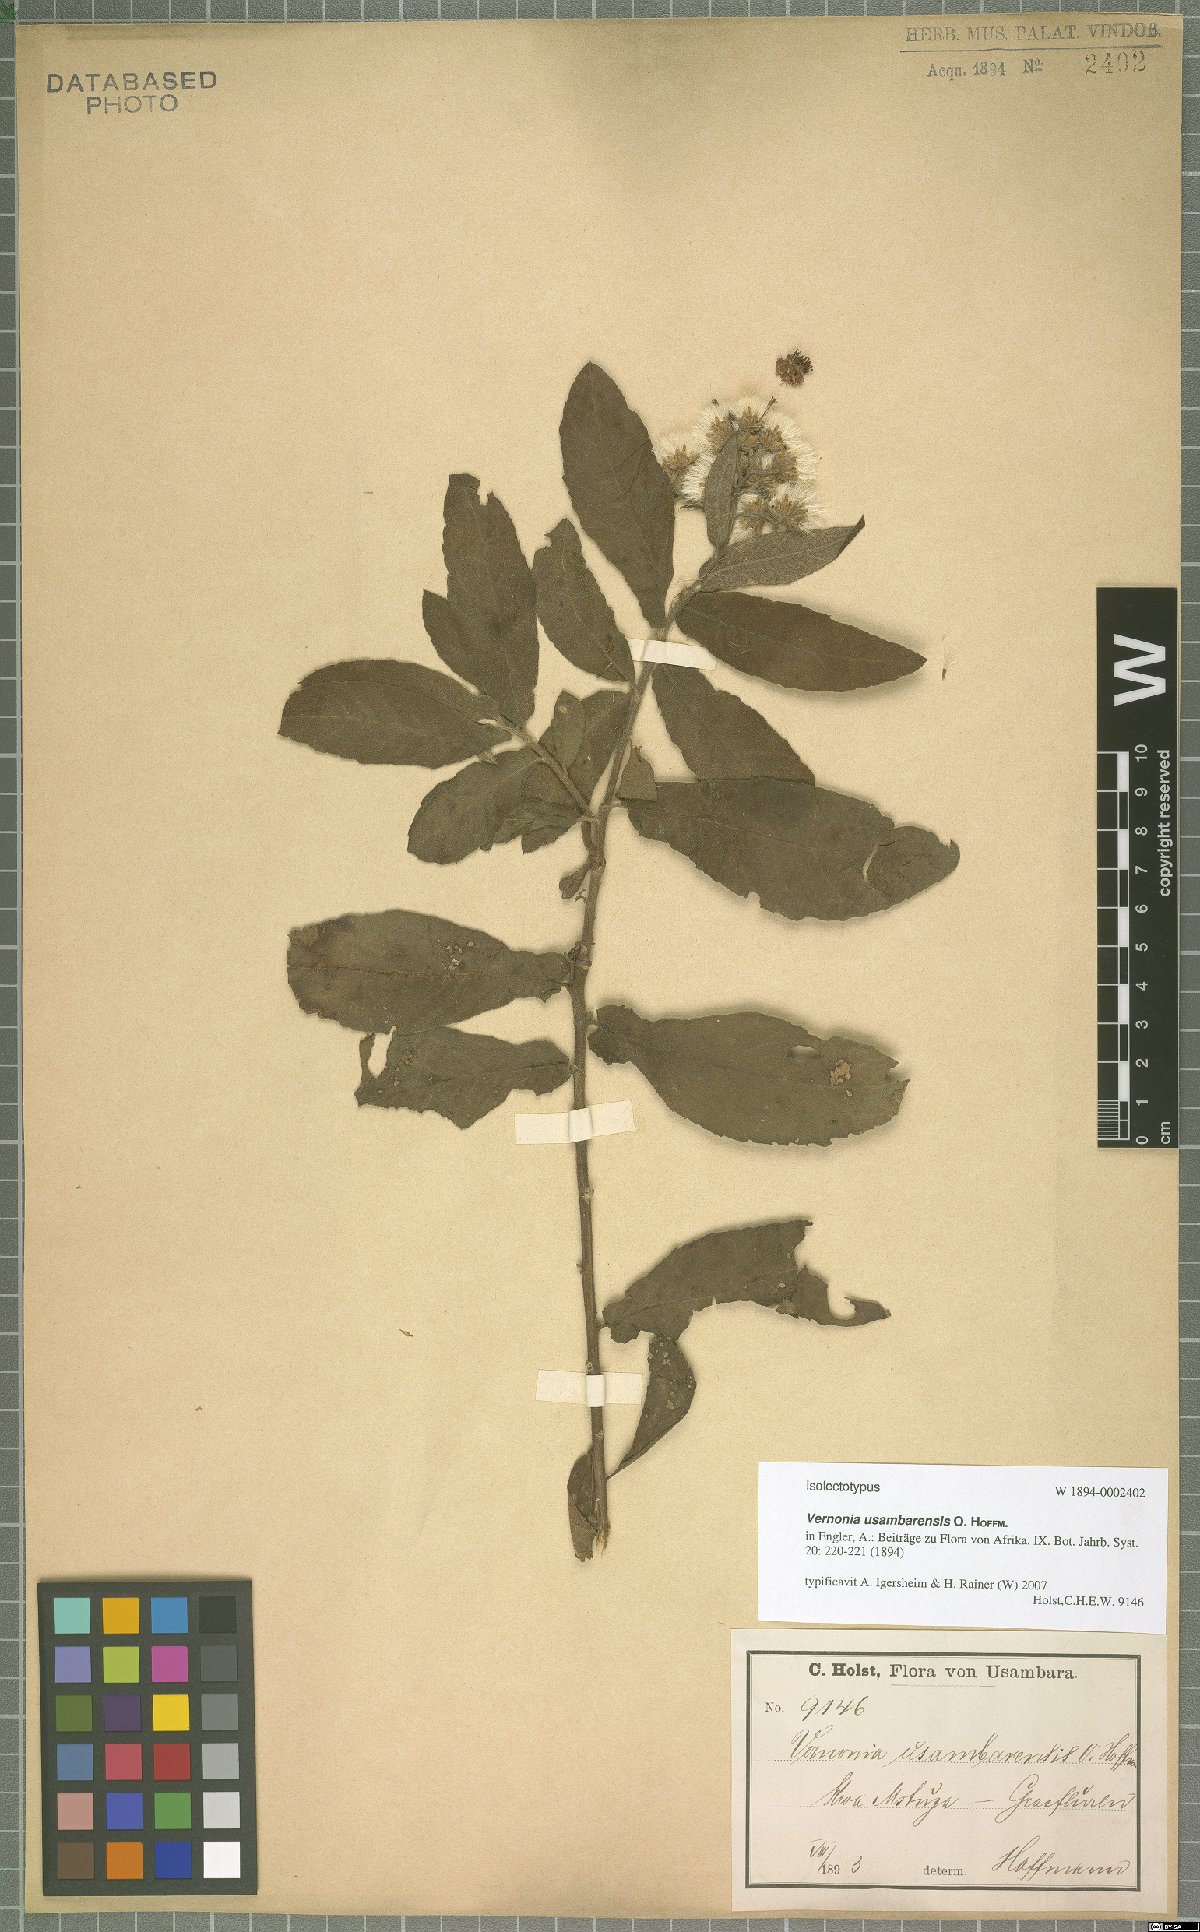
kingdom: Plantae
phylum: Tracheophyta
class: Magnoliopsida
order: Asterales
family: Asteraceae
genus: Jeffreycia
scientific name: Jeffreycia usambarensis
